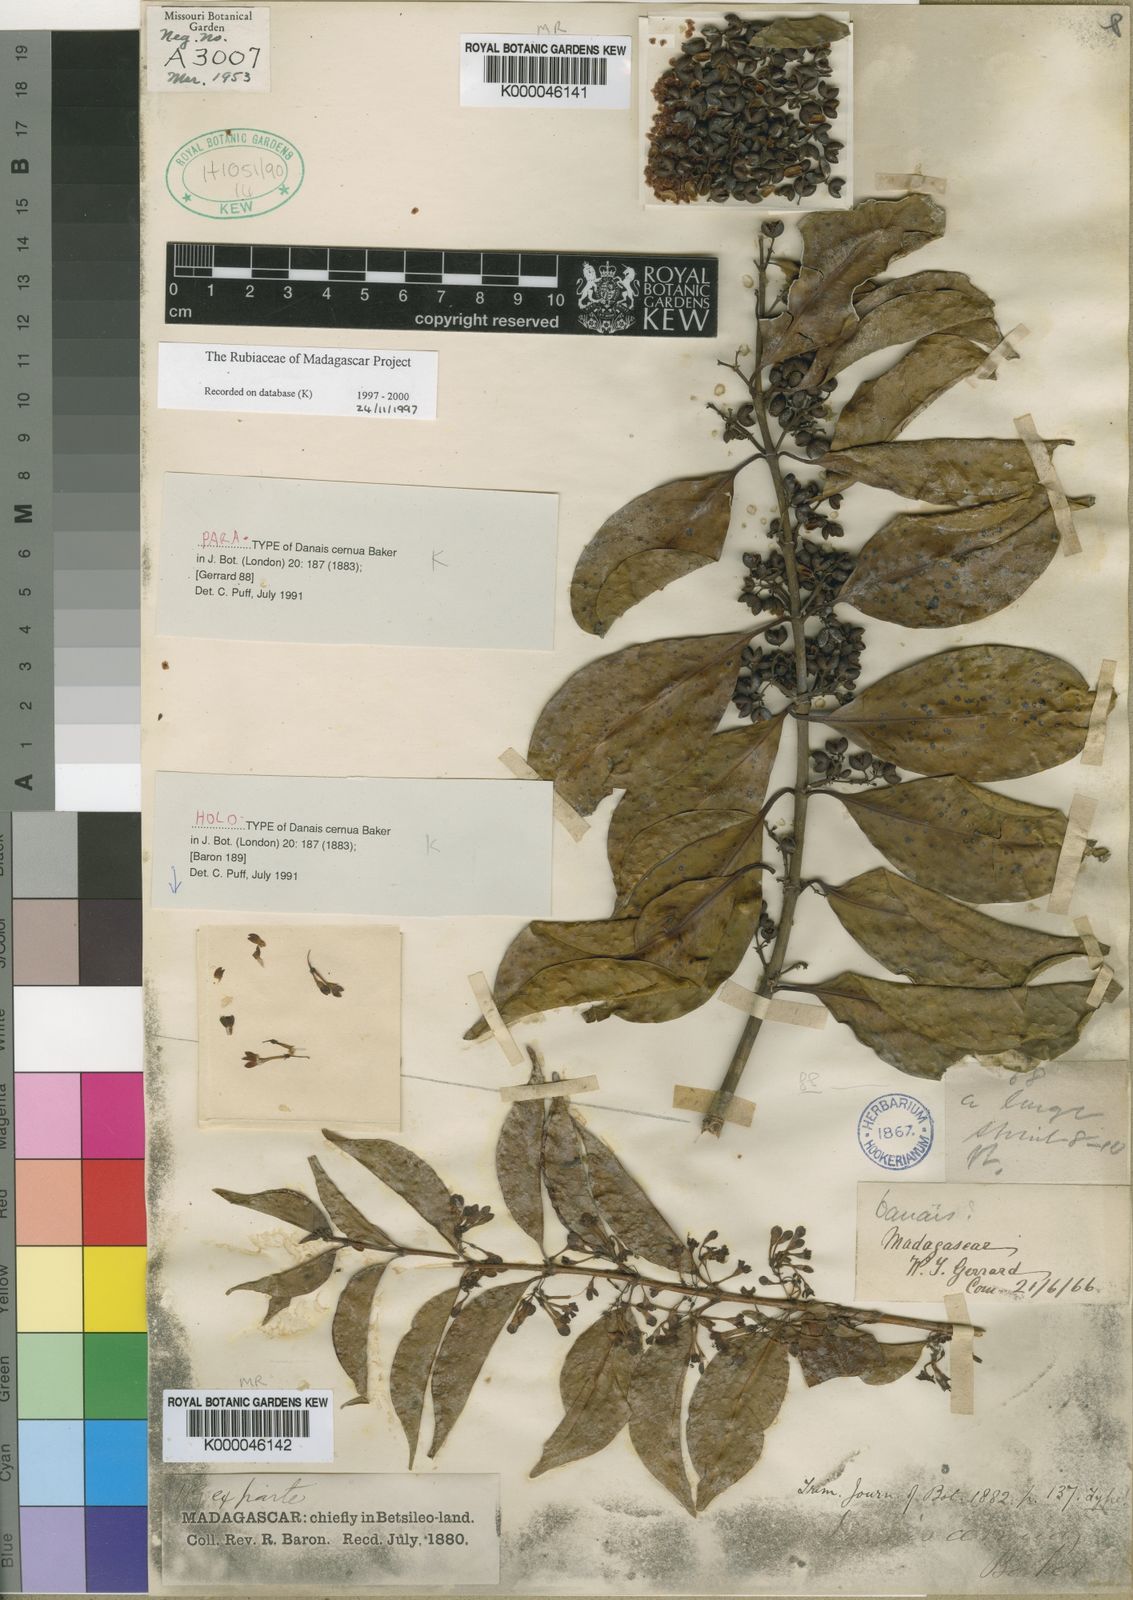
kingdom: Plantae
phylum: Tracheophyta
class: Magnoliopsida
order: Gentianales
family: Rubiaceae
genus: Danais
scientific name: Danais cernua
